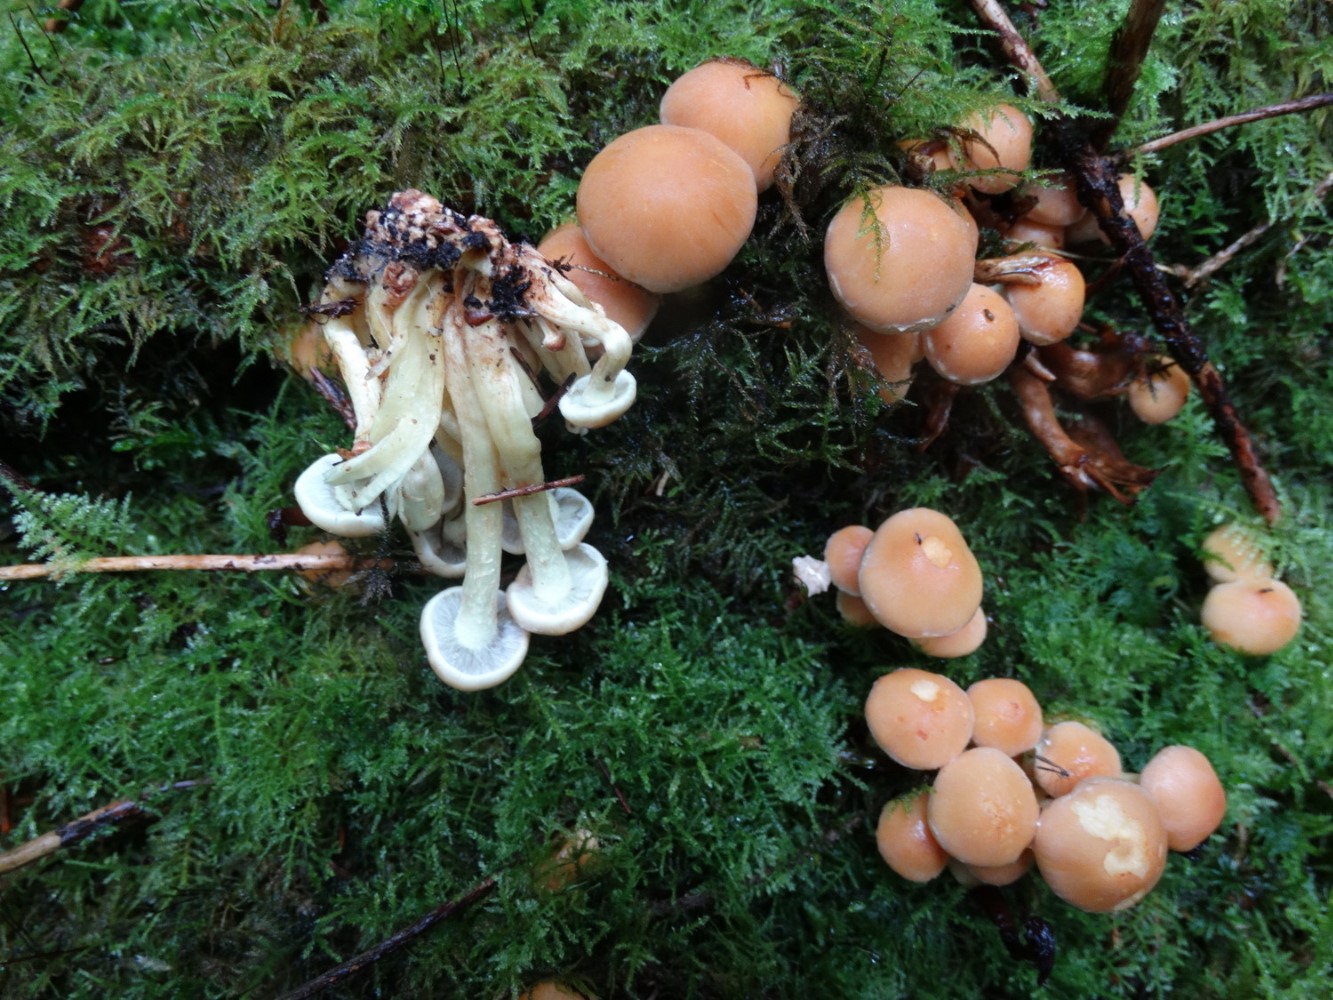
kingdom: Fungi
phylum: Basidiomycota
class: Agaricomycetes
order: Agaricales
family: Strophariaceae
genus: Hypholoma
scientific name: Hypholoma capnoides
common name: gran-svovlhat
